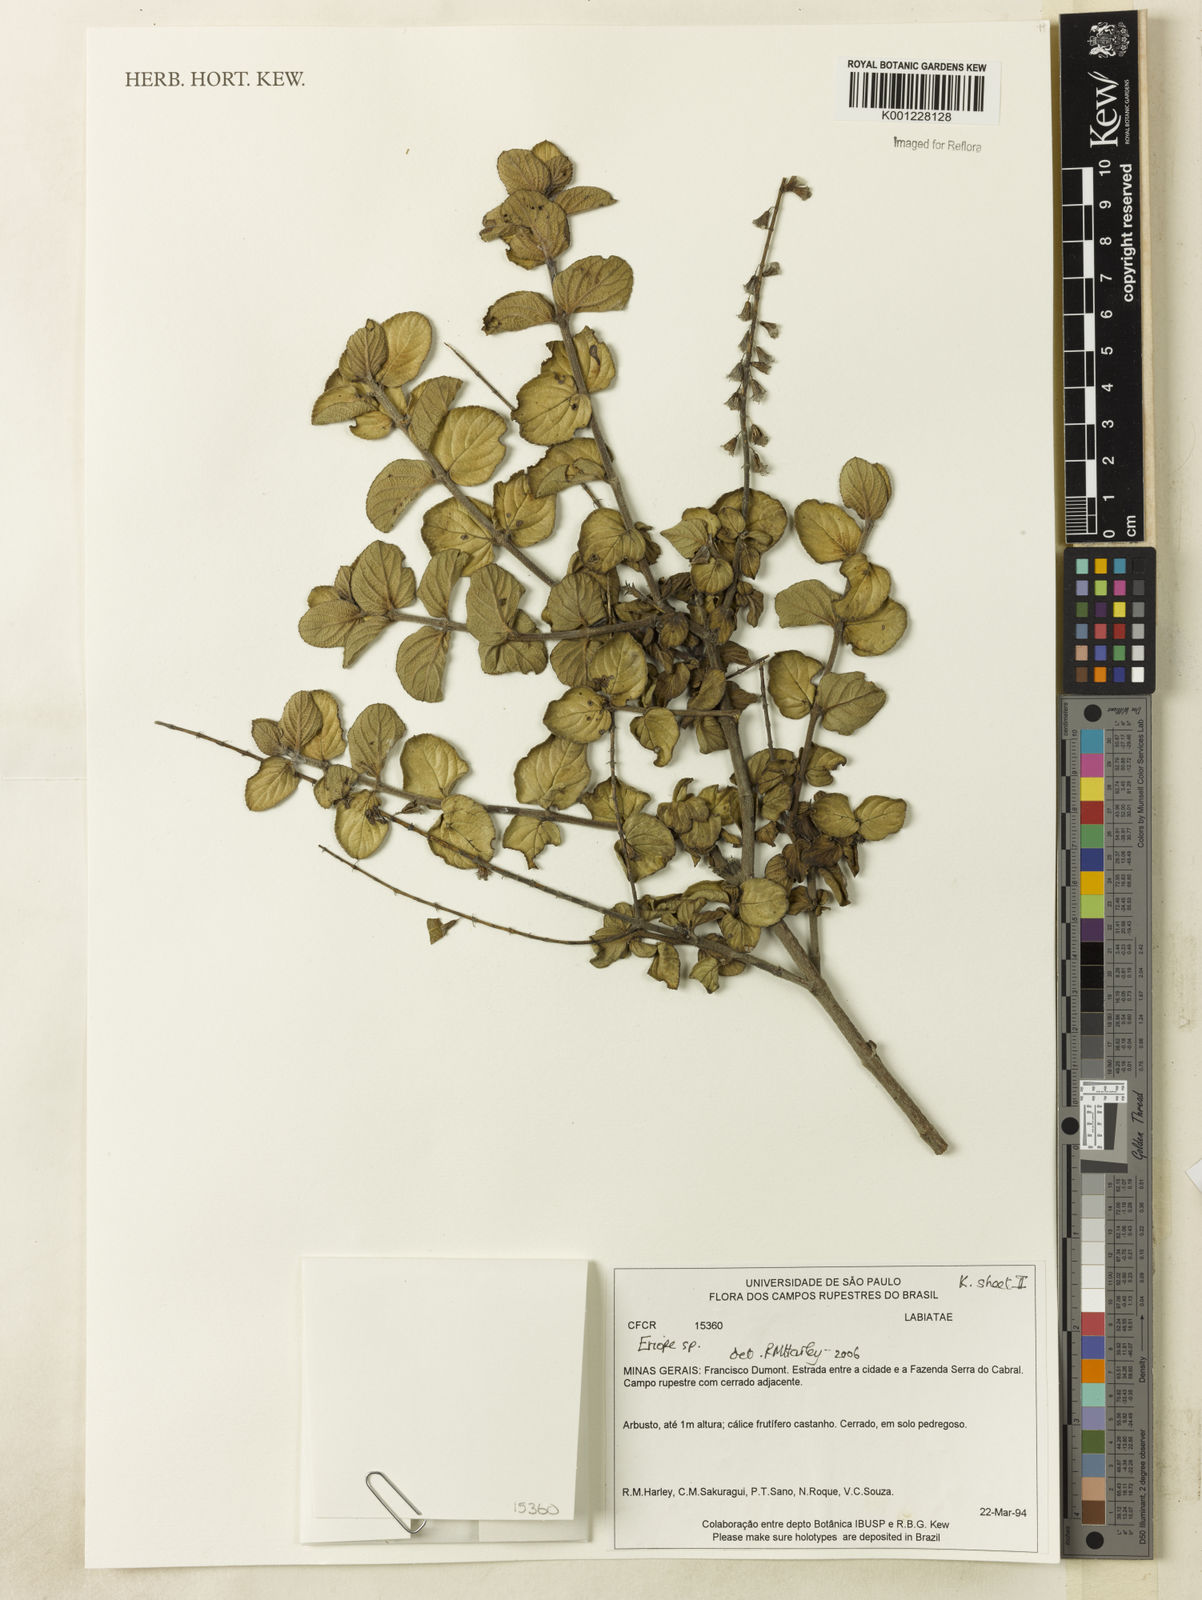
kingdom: Plantae
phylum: Tracheophyta
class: Magnoliopsida
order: Lamiales
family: Lamiaceae
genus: Eriope
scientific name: Eriope
